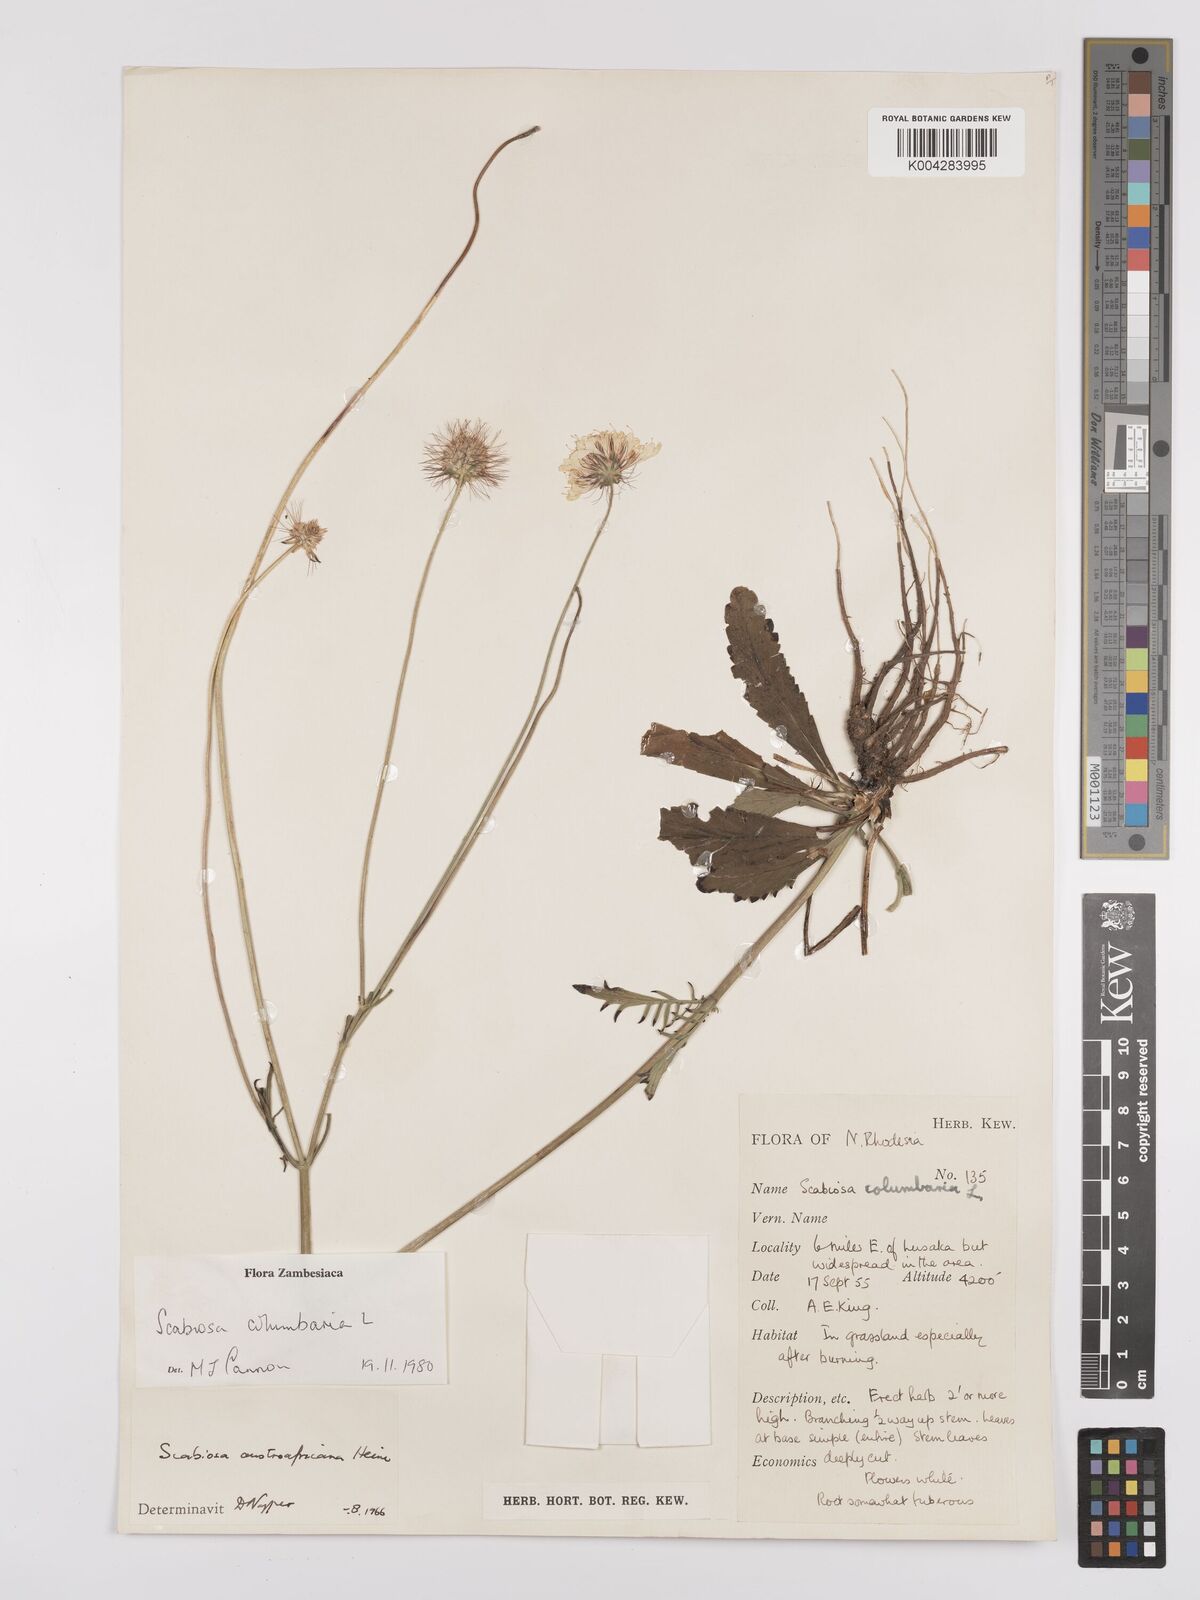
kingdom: Plantae
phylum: Tracheophyta
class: Magnoliopsida
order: Dipsacales
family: Caprifoliaceae
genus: Scabiosa
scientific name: Scabiosa austroafricana
